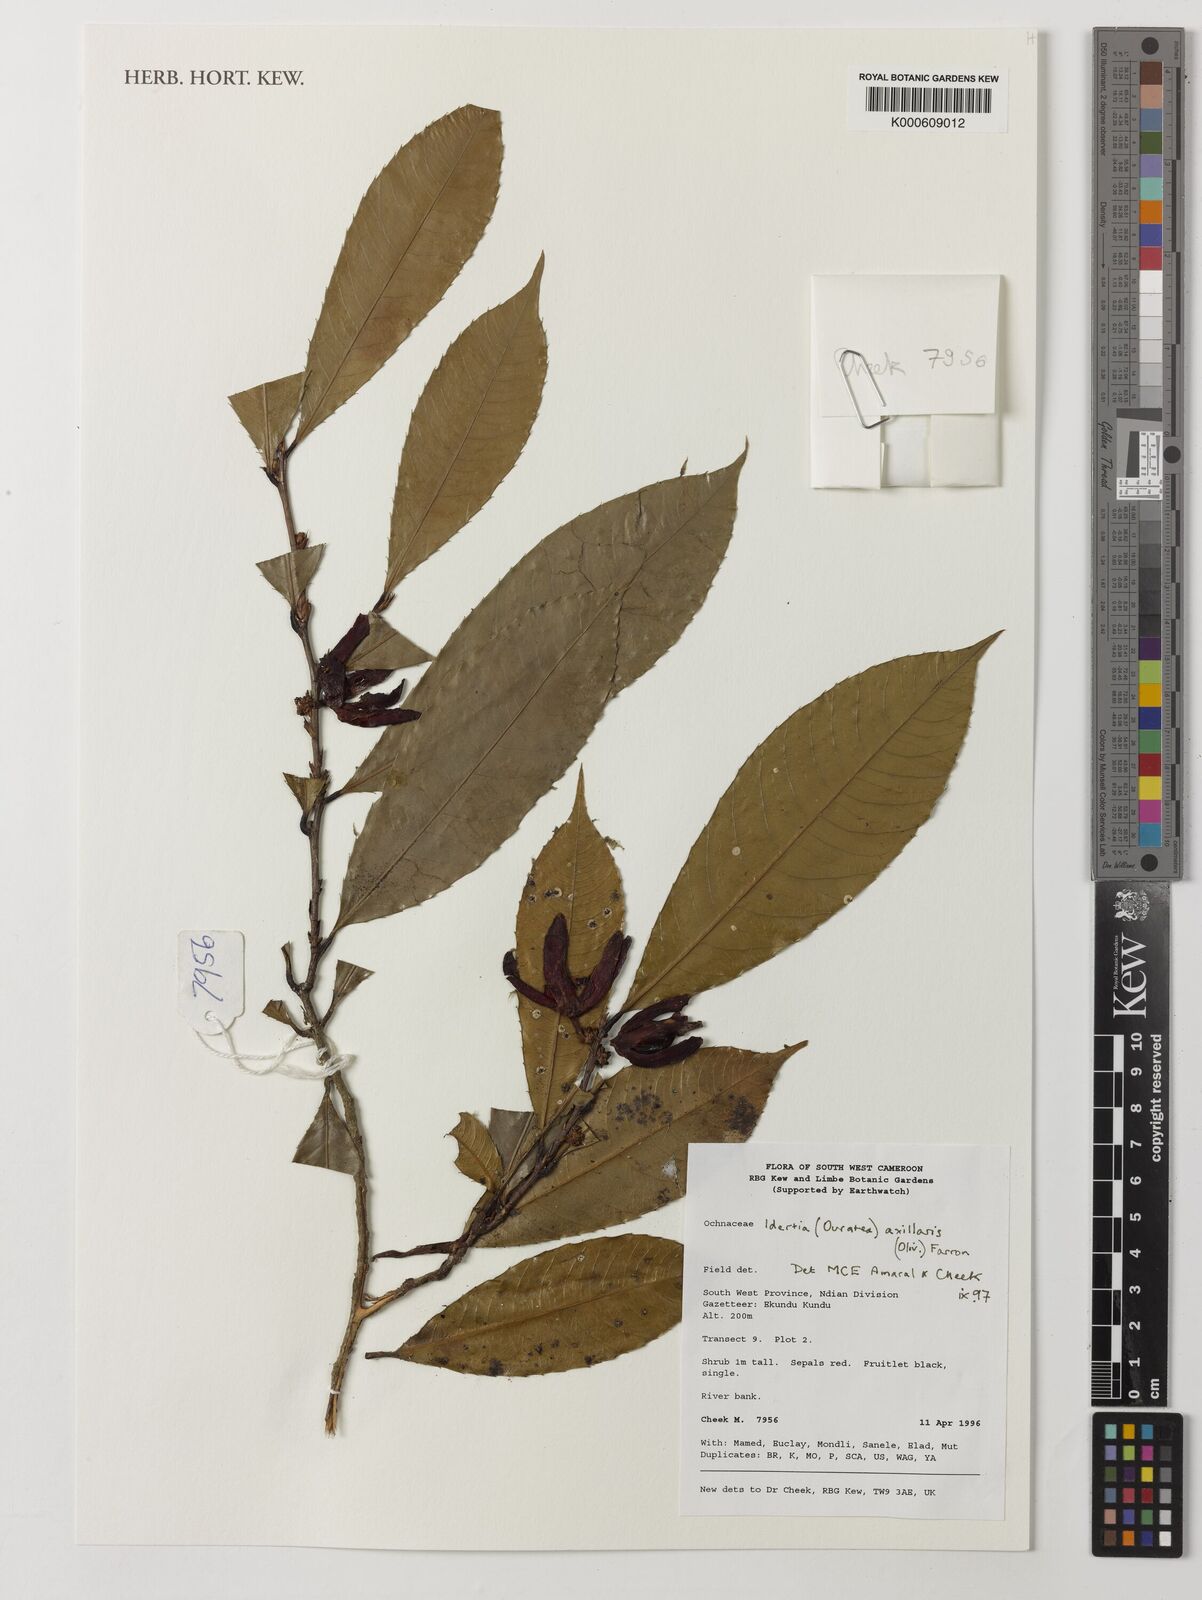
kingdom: Plantae
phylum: Tracheophyta
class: Magnoliopsida
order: Malpighiales
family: Ochnaceae
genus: Idertia
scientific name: Idertia axillaris
